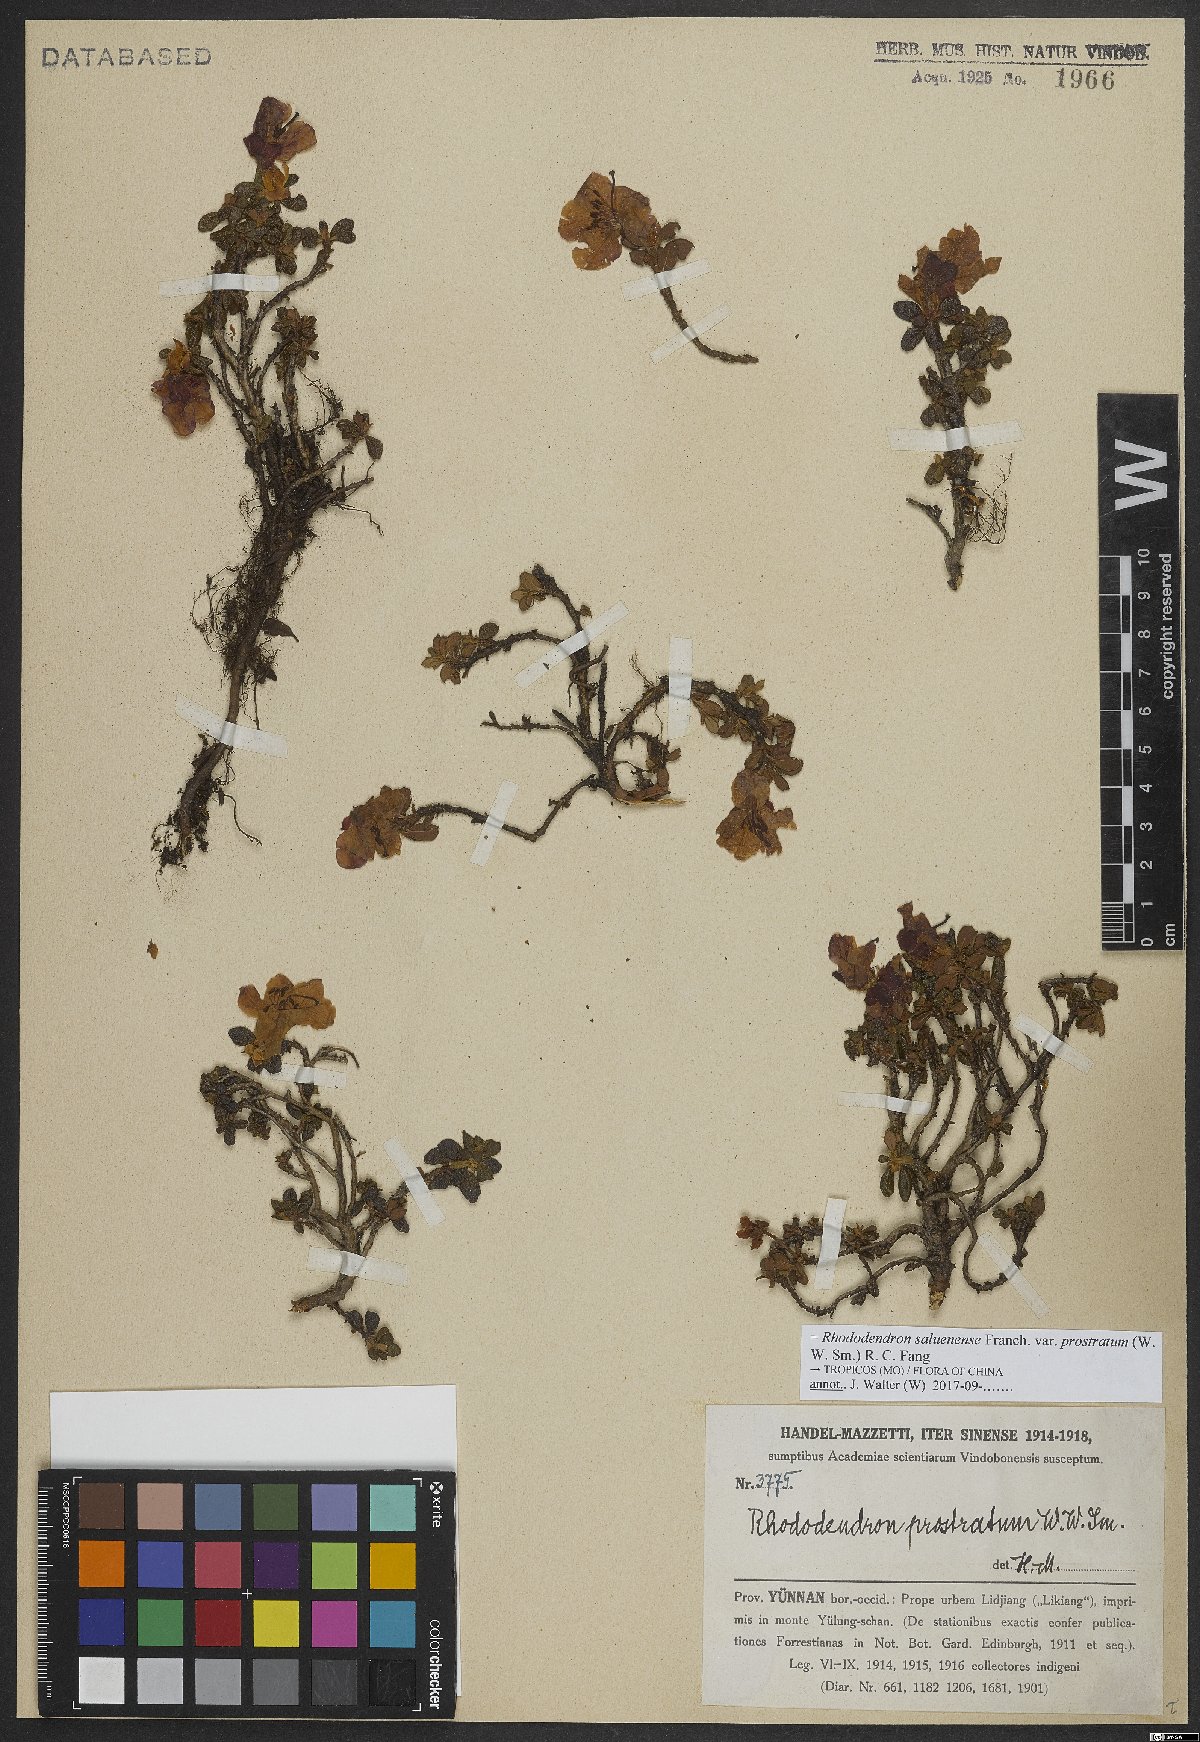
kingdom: Plantae
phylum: Tracheophyta
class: Magnoliopsida
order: Ericales
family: Ericaceae
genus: Rhododendron
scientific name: Rhododendron saluenense
